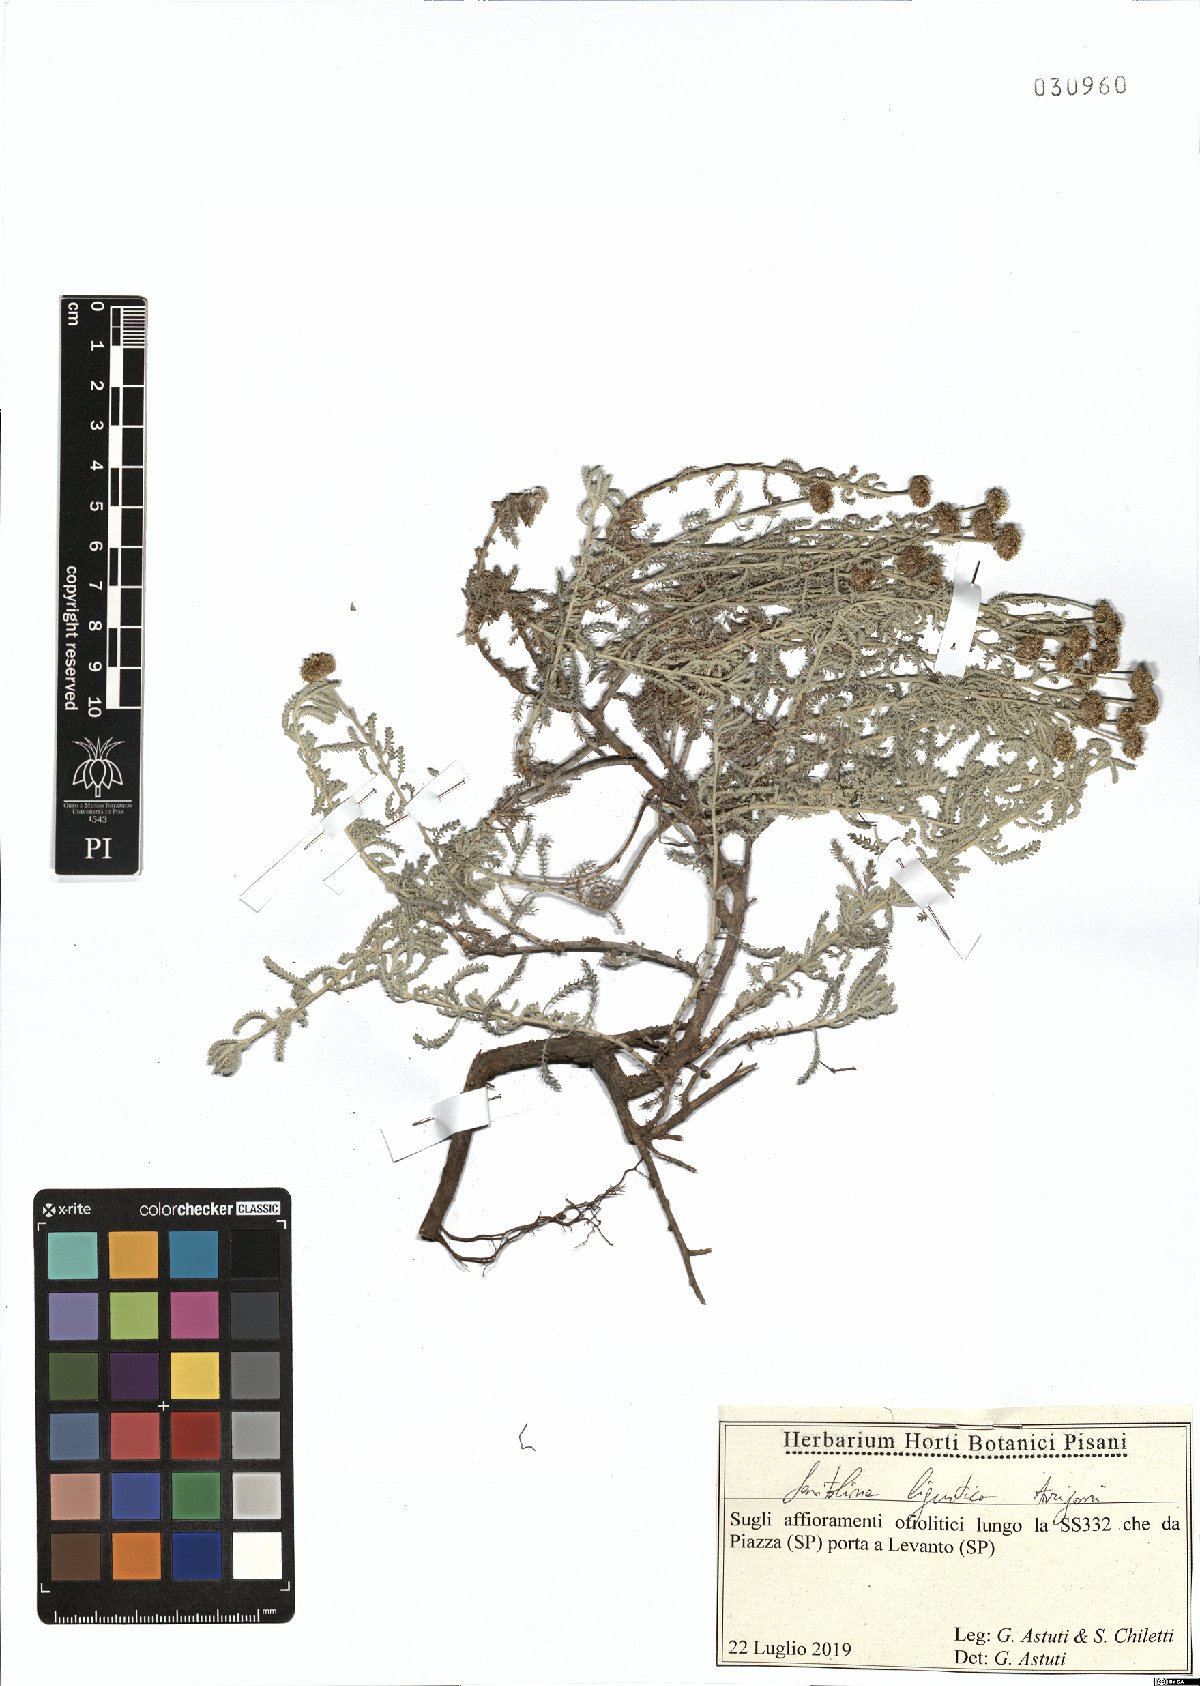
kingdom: Plantae
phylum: Tracheophyta
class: Magnoliopsida
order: Asterales
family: Asteraceae
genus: Santolina
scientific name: Santolina ligustica
